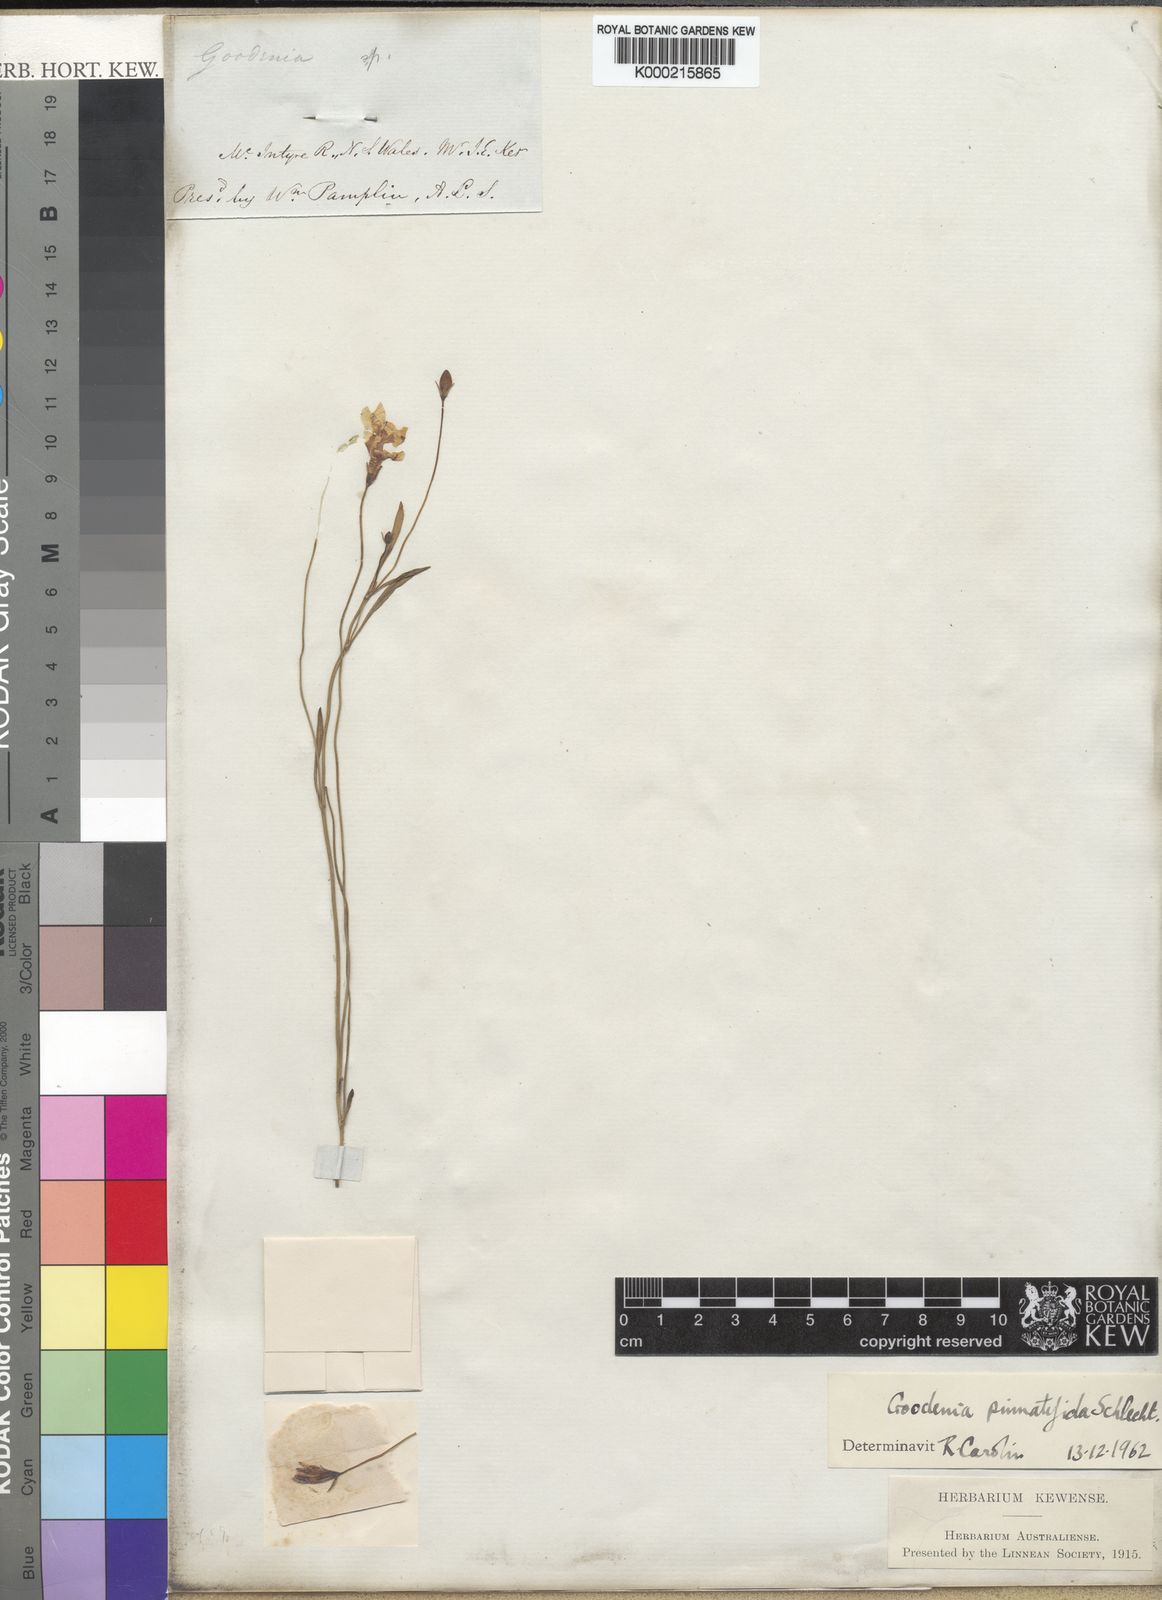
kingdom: Plantae
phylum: Tracheophyta
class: Magnoliopsida
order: Asterales
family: Goodeniaceae
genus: Goodenia
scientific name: Goodenia pinnatifida
